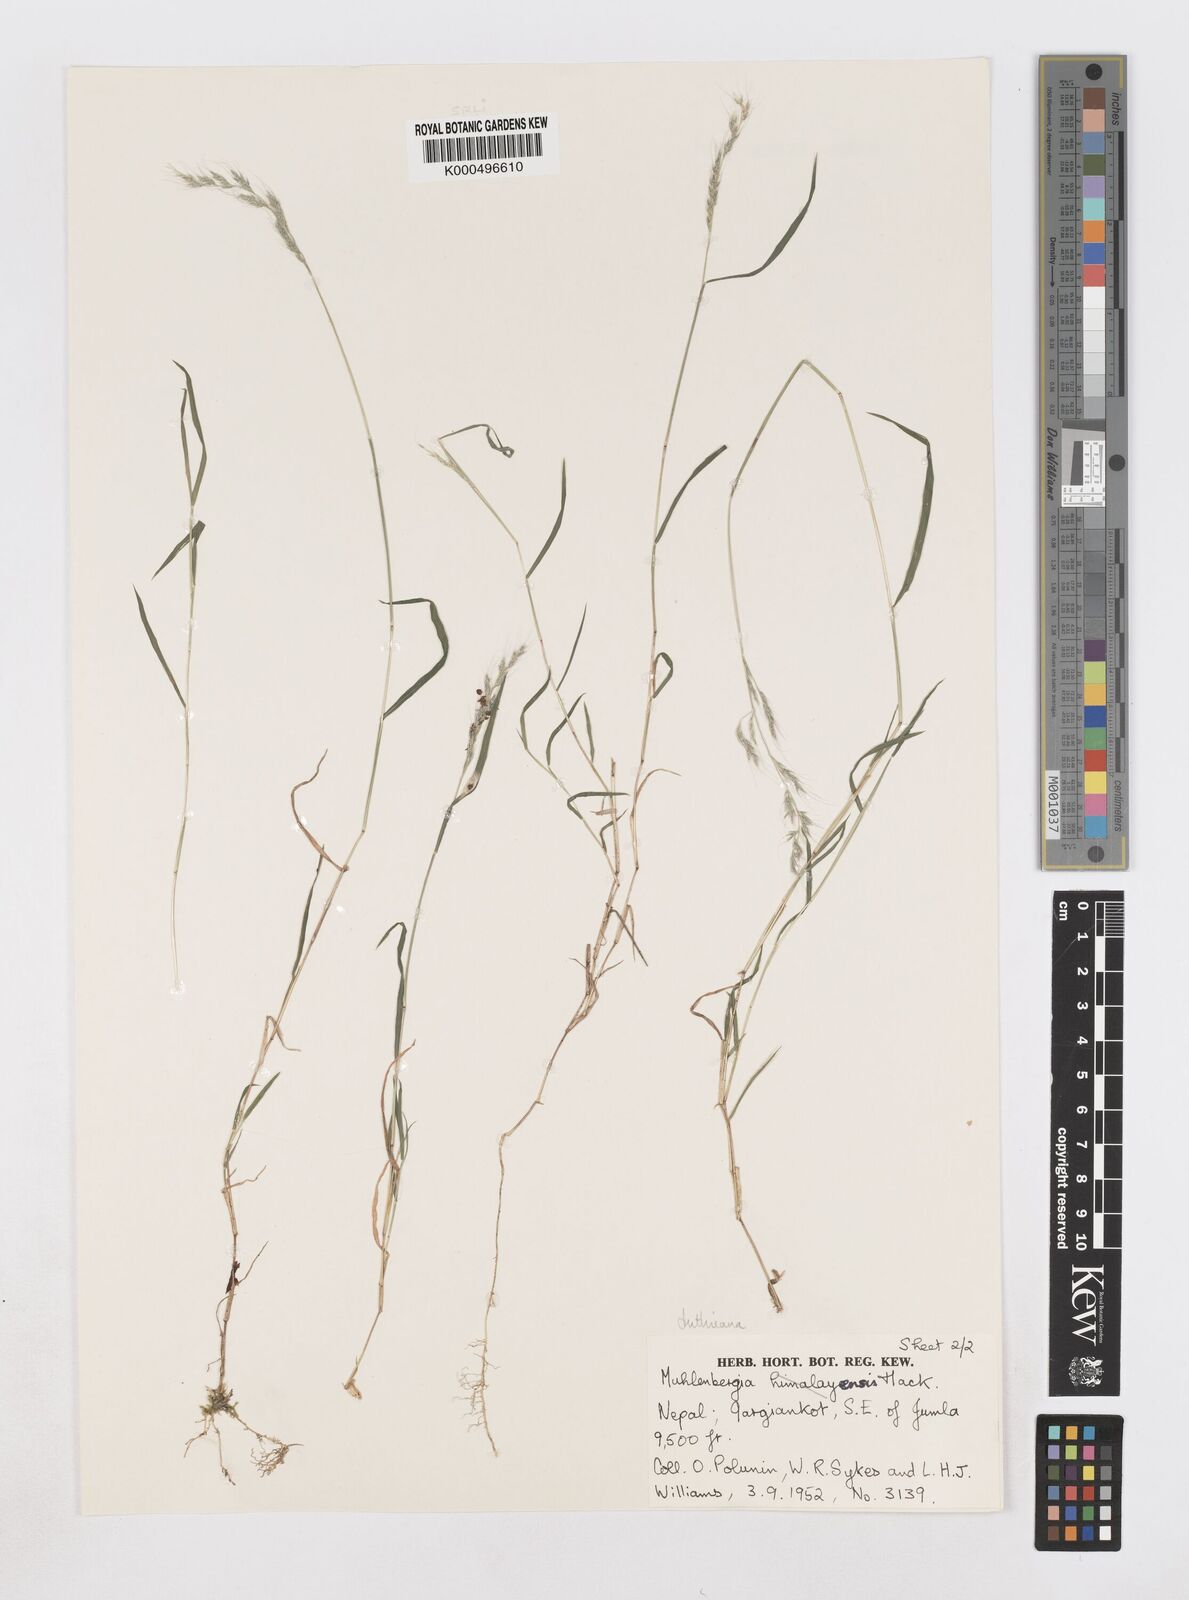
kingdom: Plantae
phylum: Tracheophyta
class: Liliopsida
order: Poales
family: Poaceae
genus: Muhlenbergia
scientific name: Muhlenbergia duthieana
